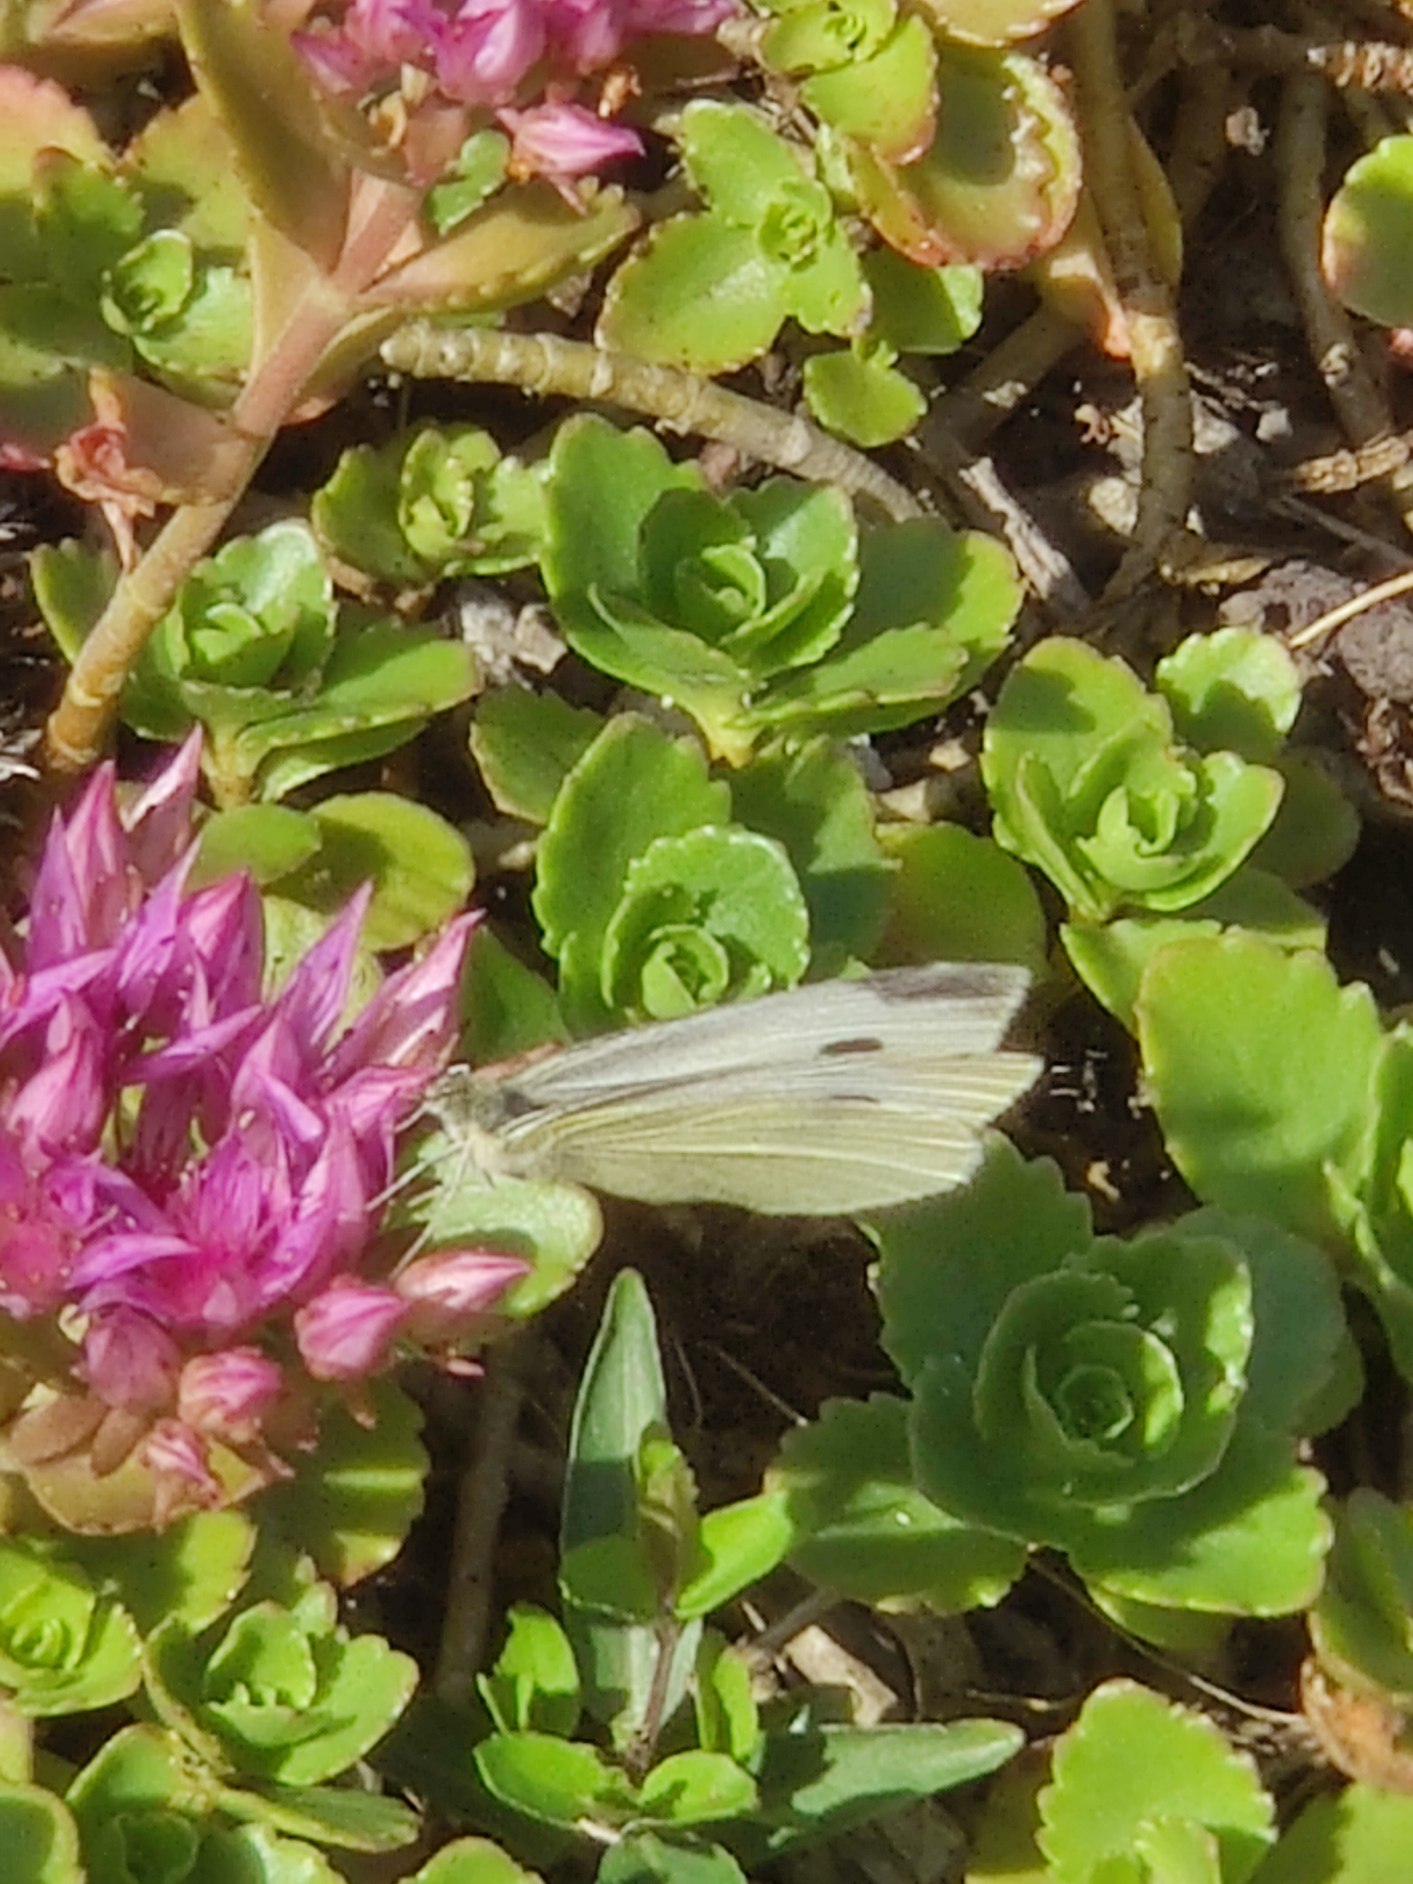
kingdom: Animalia
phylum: Arthropoda
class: Insecta
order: Lepidoptera
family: Pieridae
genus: Pieris
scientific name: Pieris rapae
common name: Lille kålsommerfugl
